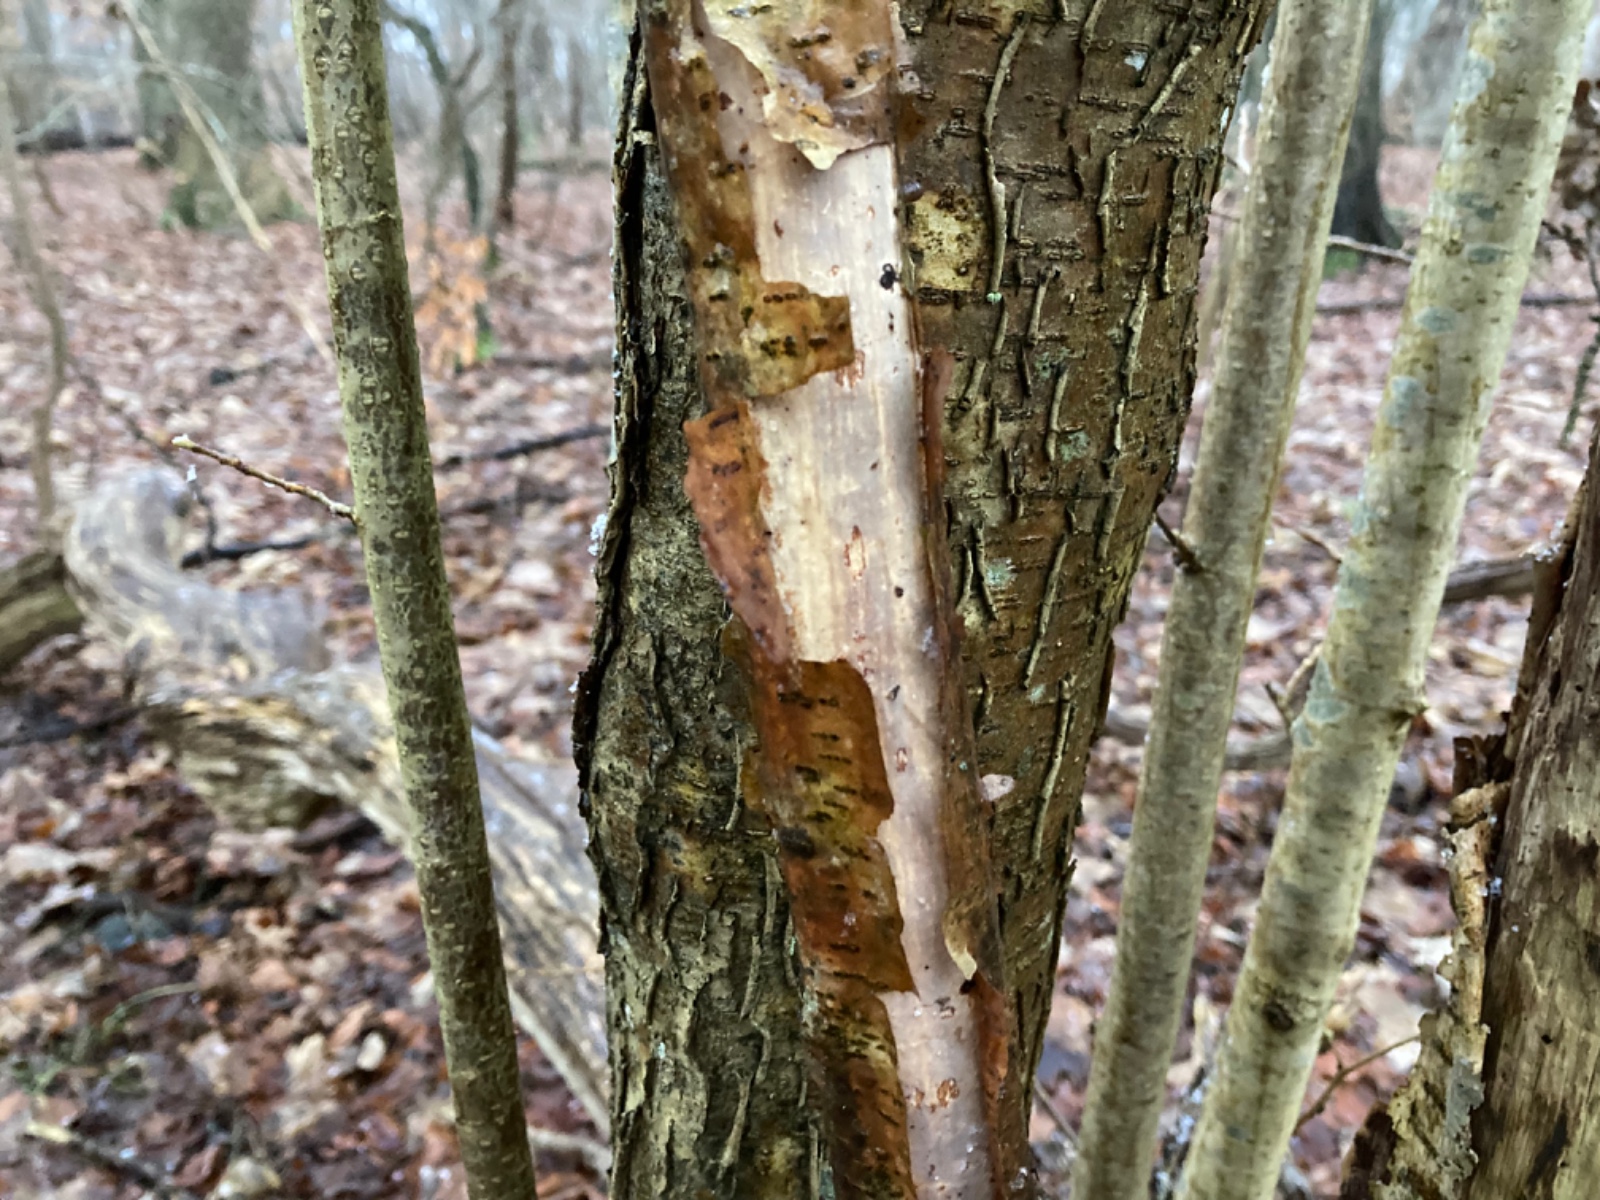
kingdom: Fungi
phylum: Basidiomycota
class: Agaricomycetes
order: Corticiales
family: Vuilleminiaceae
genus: Vuilleminia
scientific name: Vuilleminia coryli
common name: hassel-barksprænger
